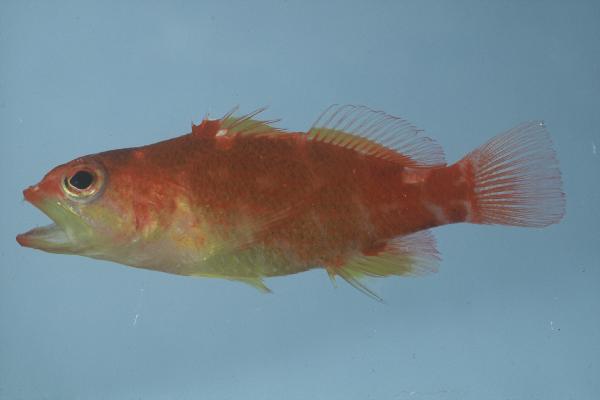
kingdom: Animalia
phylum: Chordata
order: Perciformes
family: Serranidae
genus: Plectranthias
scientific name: Plectranthias winniensis
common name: Redblotch perchlet
